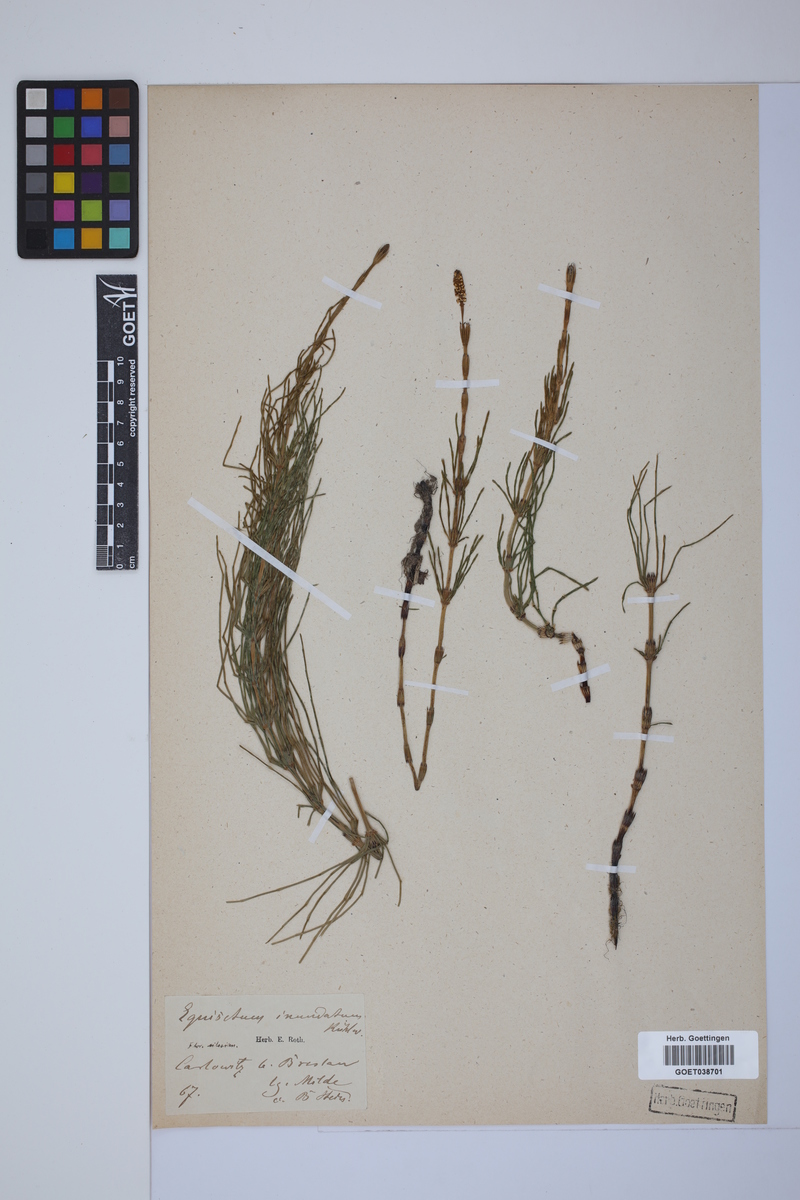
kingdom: Plantae
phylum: Tracheophyta
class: Polypodiopsida
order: Equisetales
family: Equisetaceae
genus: Equisetum
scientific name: Equisetum litorale
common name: Littoral horsetail
